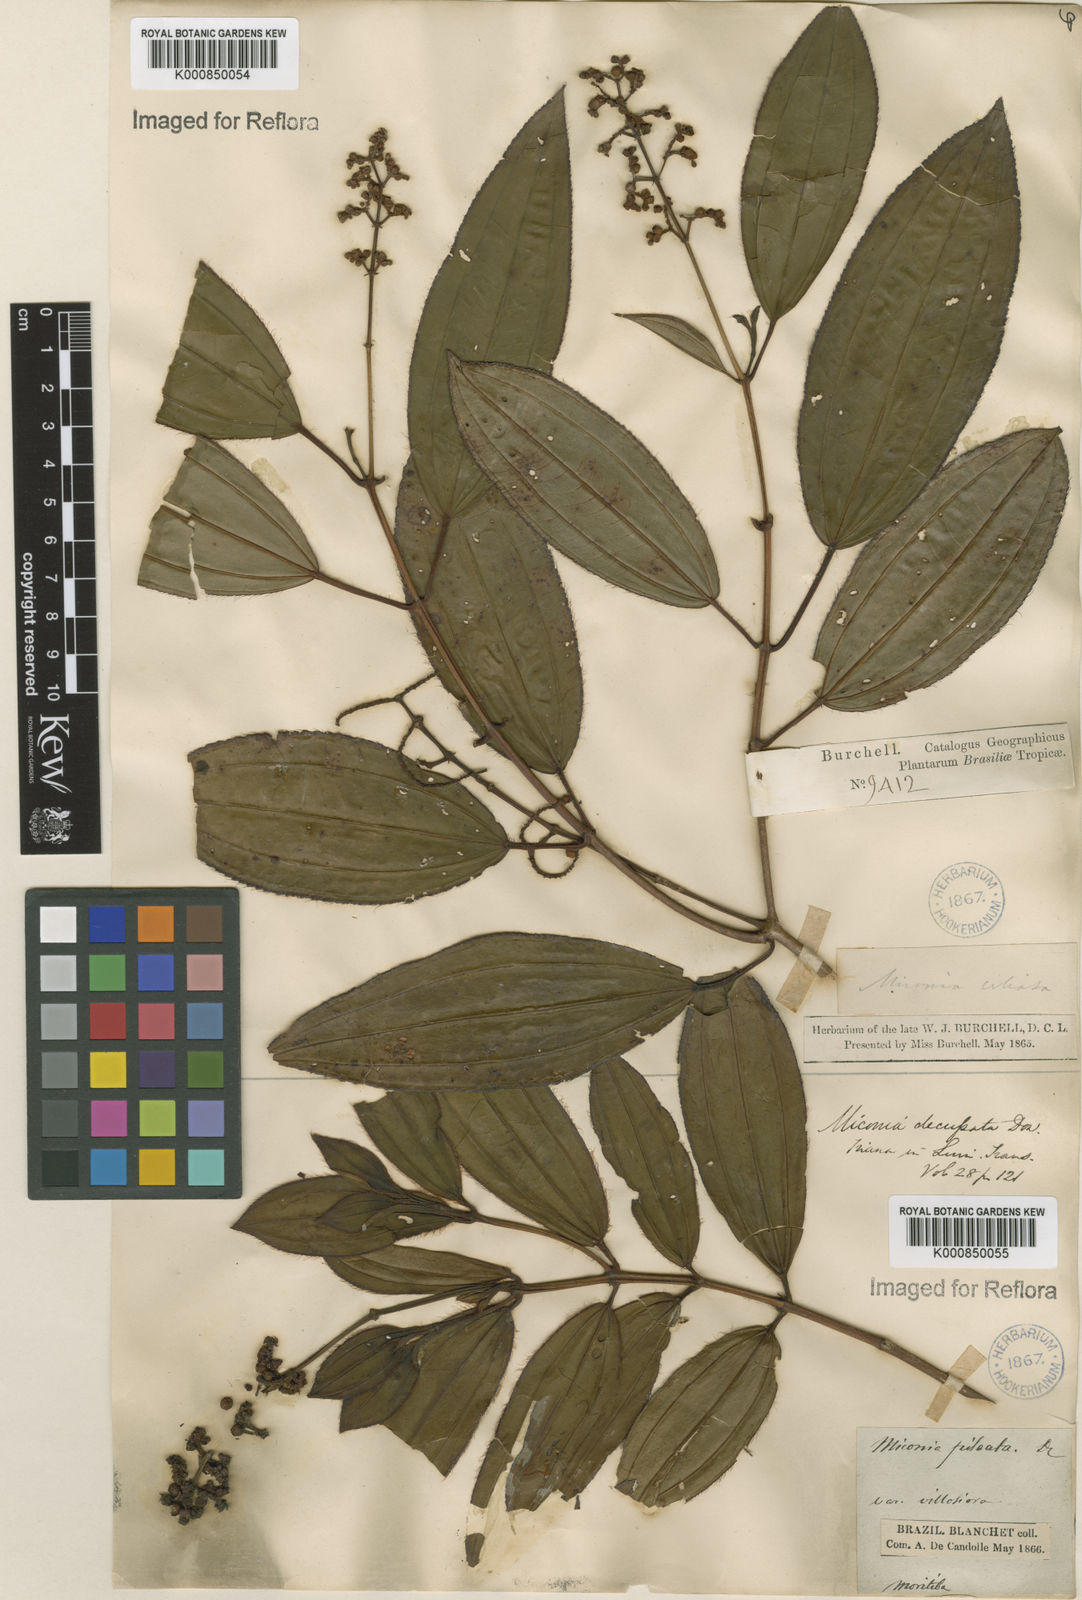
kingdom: Plantae
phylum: Tracheophyta
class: Magnoliopsida
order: Myrtales
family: Melastomataceae
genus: Miconia
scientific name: Miconia ciliata
